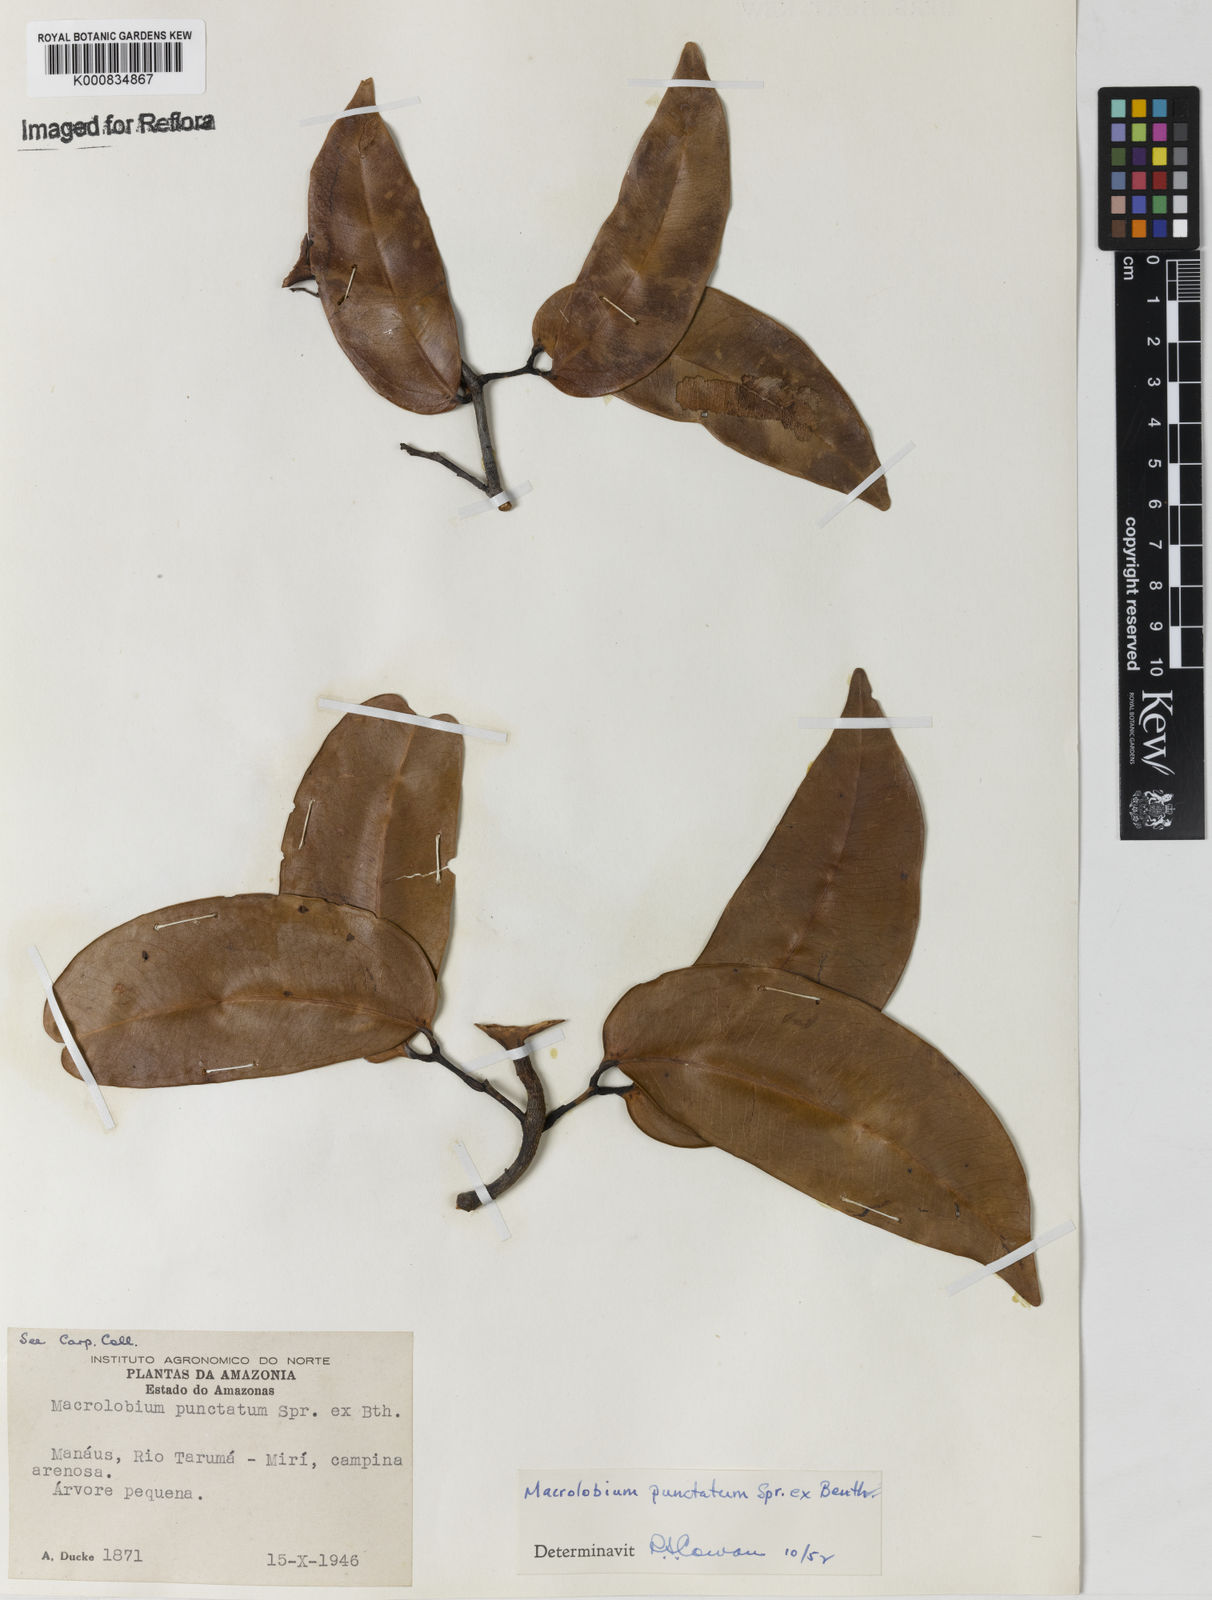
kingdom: Plantae
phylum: Tracheophyta
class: Magnoliopsida
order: Fabales
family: Fabaceae
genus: Macrolobium
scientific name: Macrolobium punctatum
